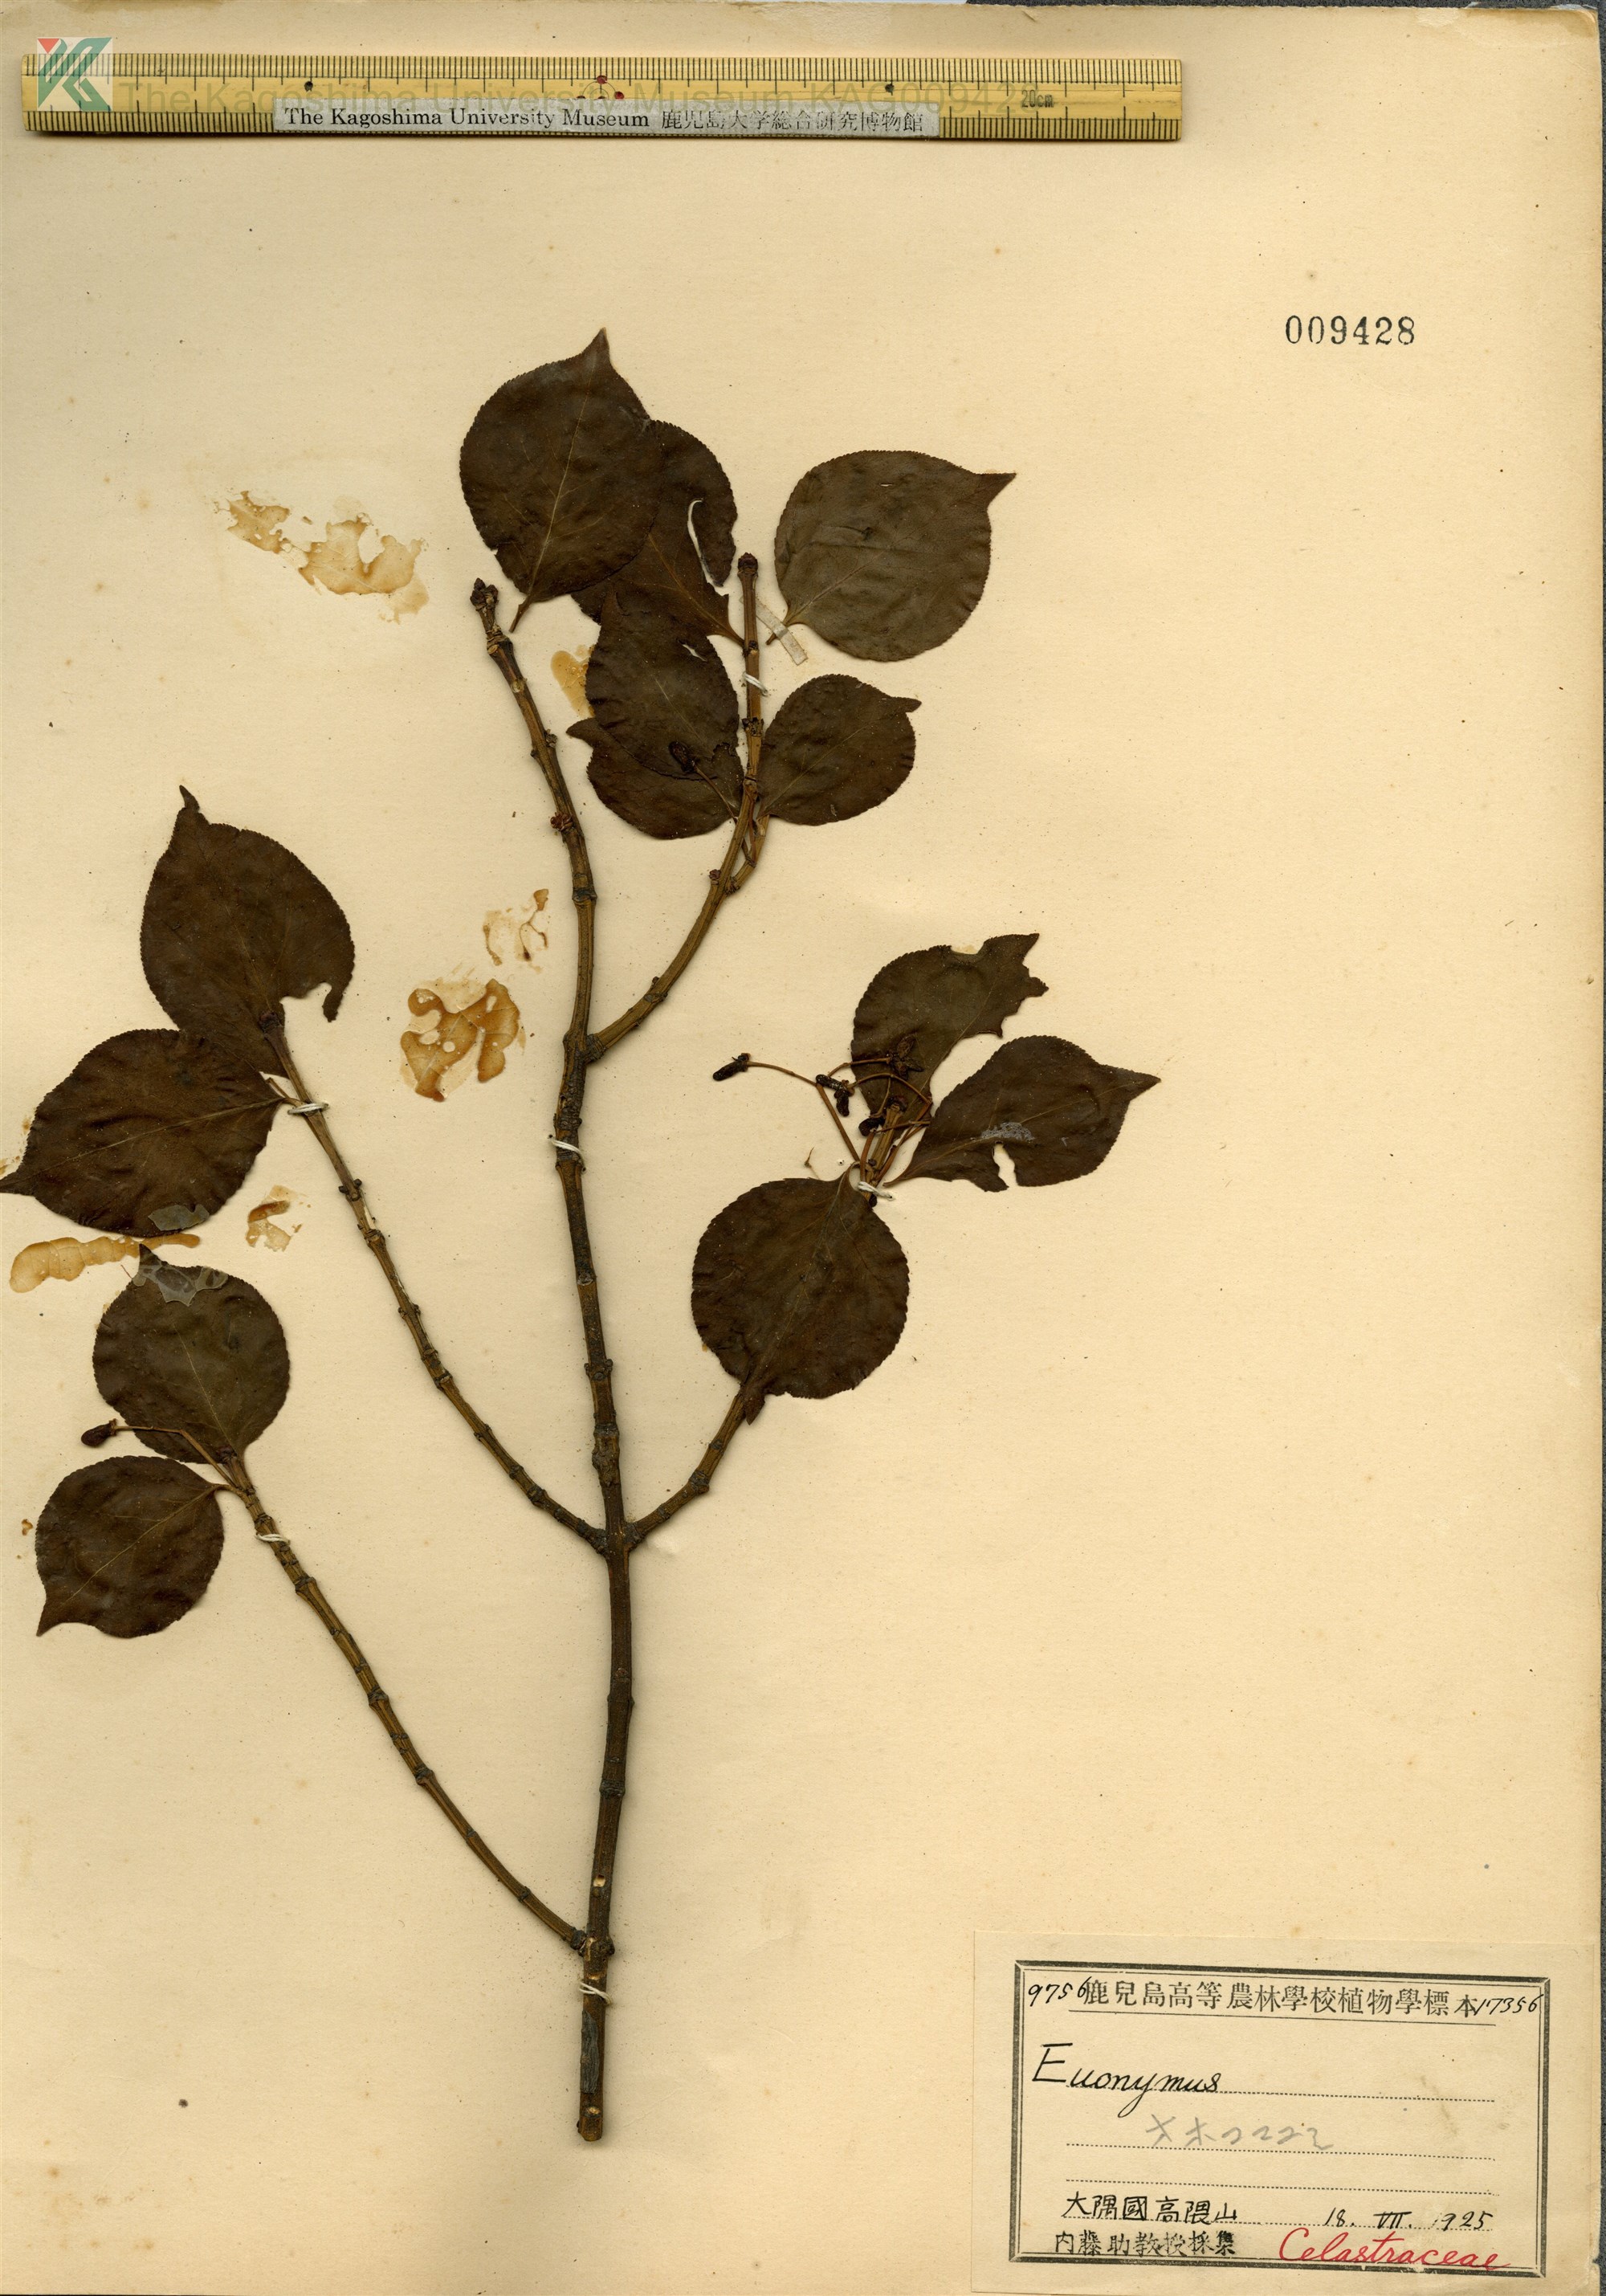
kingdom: Plantae
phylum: Tracheophyta
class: Magnoliopsida
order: Celastrales
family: Celastraceae
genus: Euonymus
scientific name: Euonymus alatus
